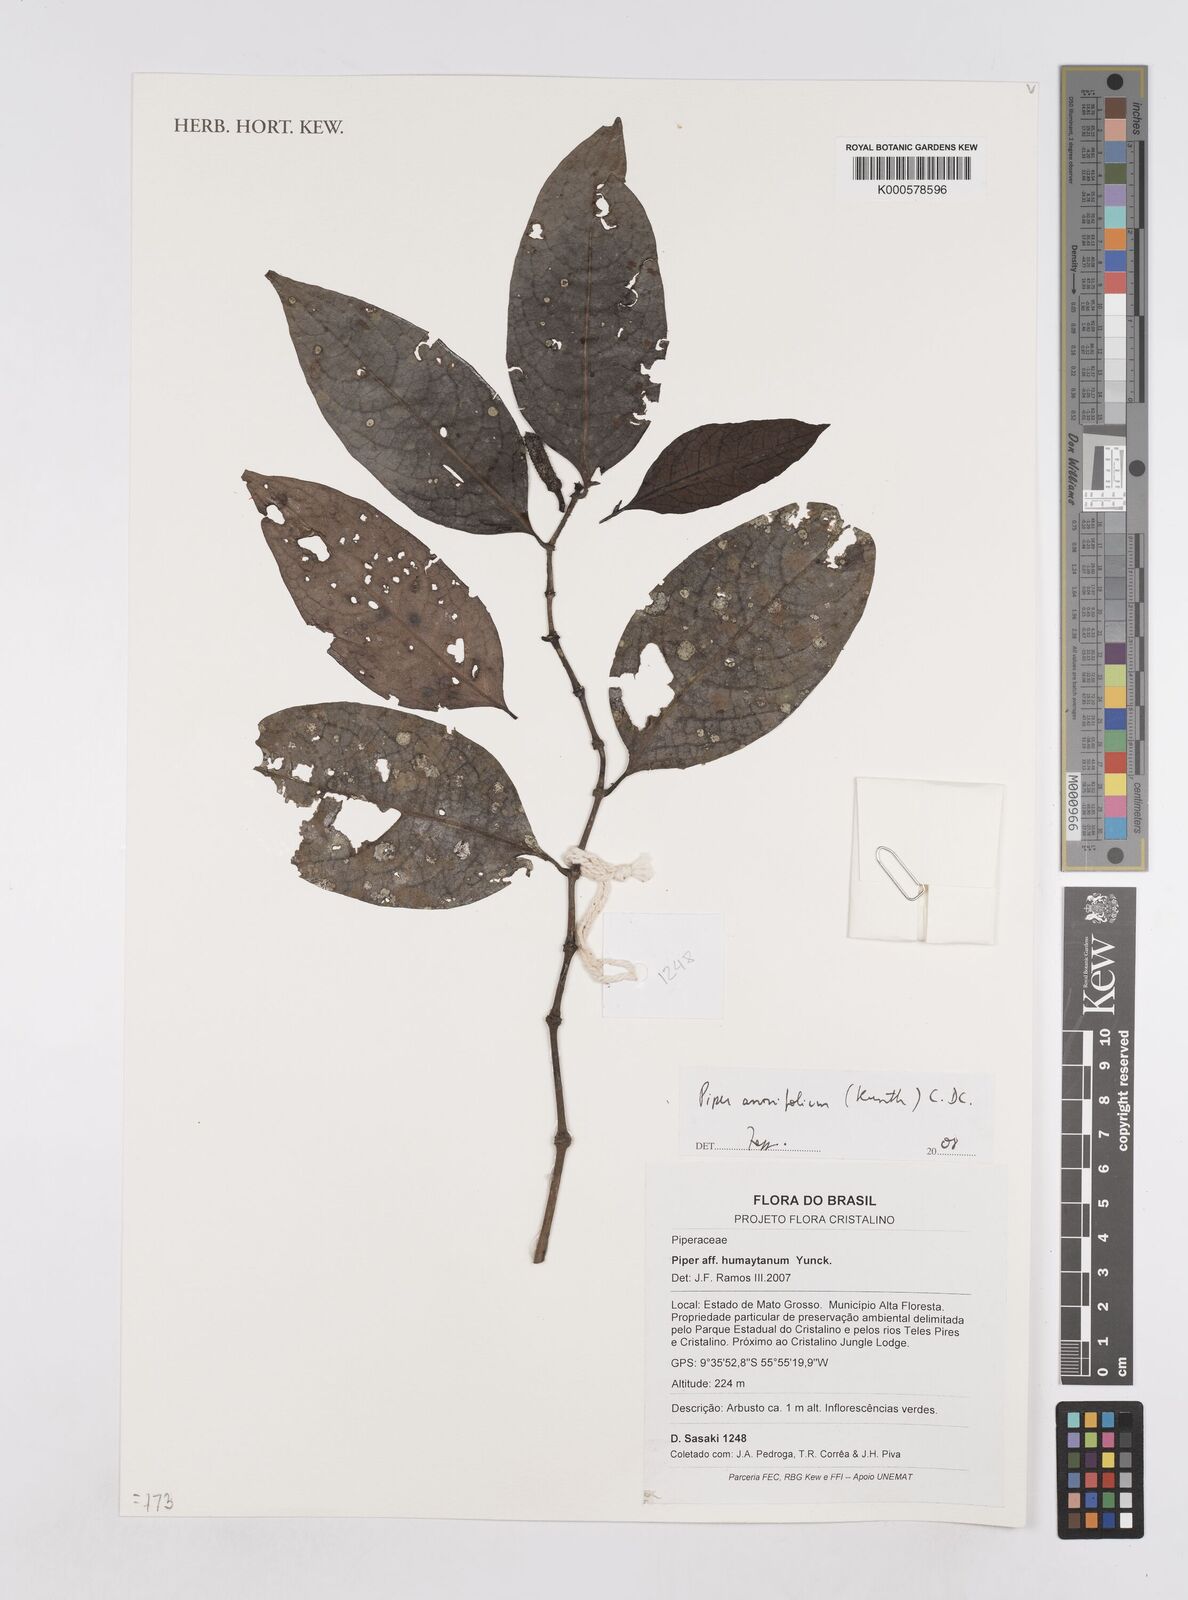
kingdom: Plantae
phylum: Tracheophyta
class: Magnoliopsida
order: Piperales
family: Piperaceae
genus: Piper
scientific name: Piper
